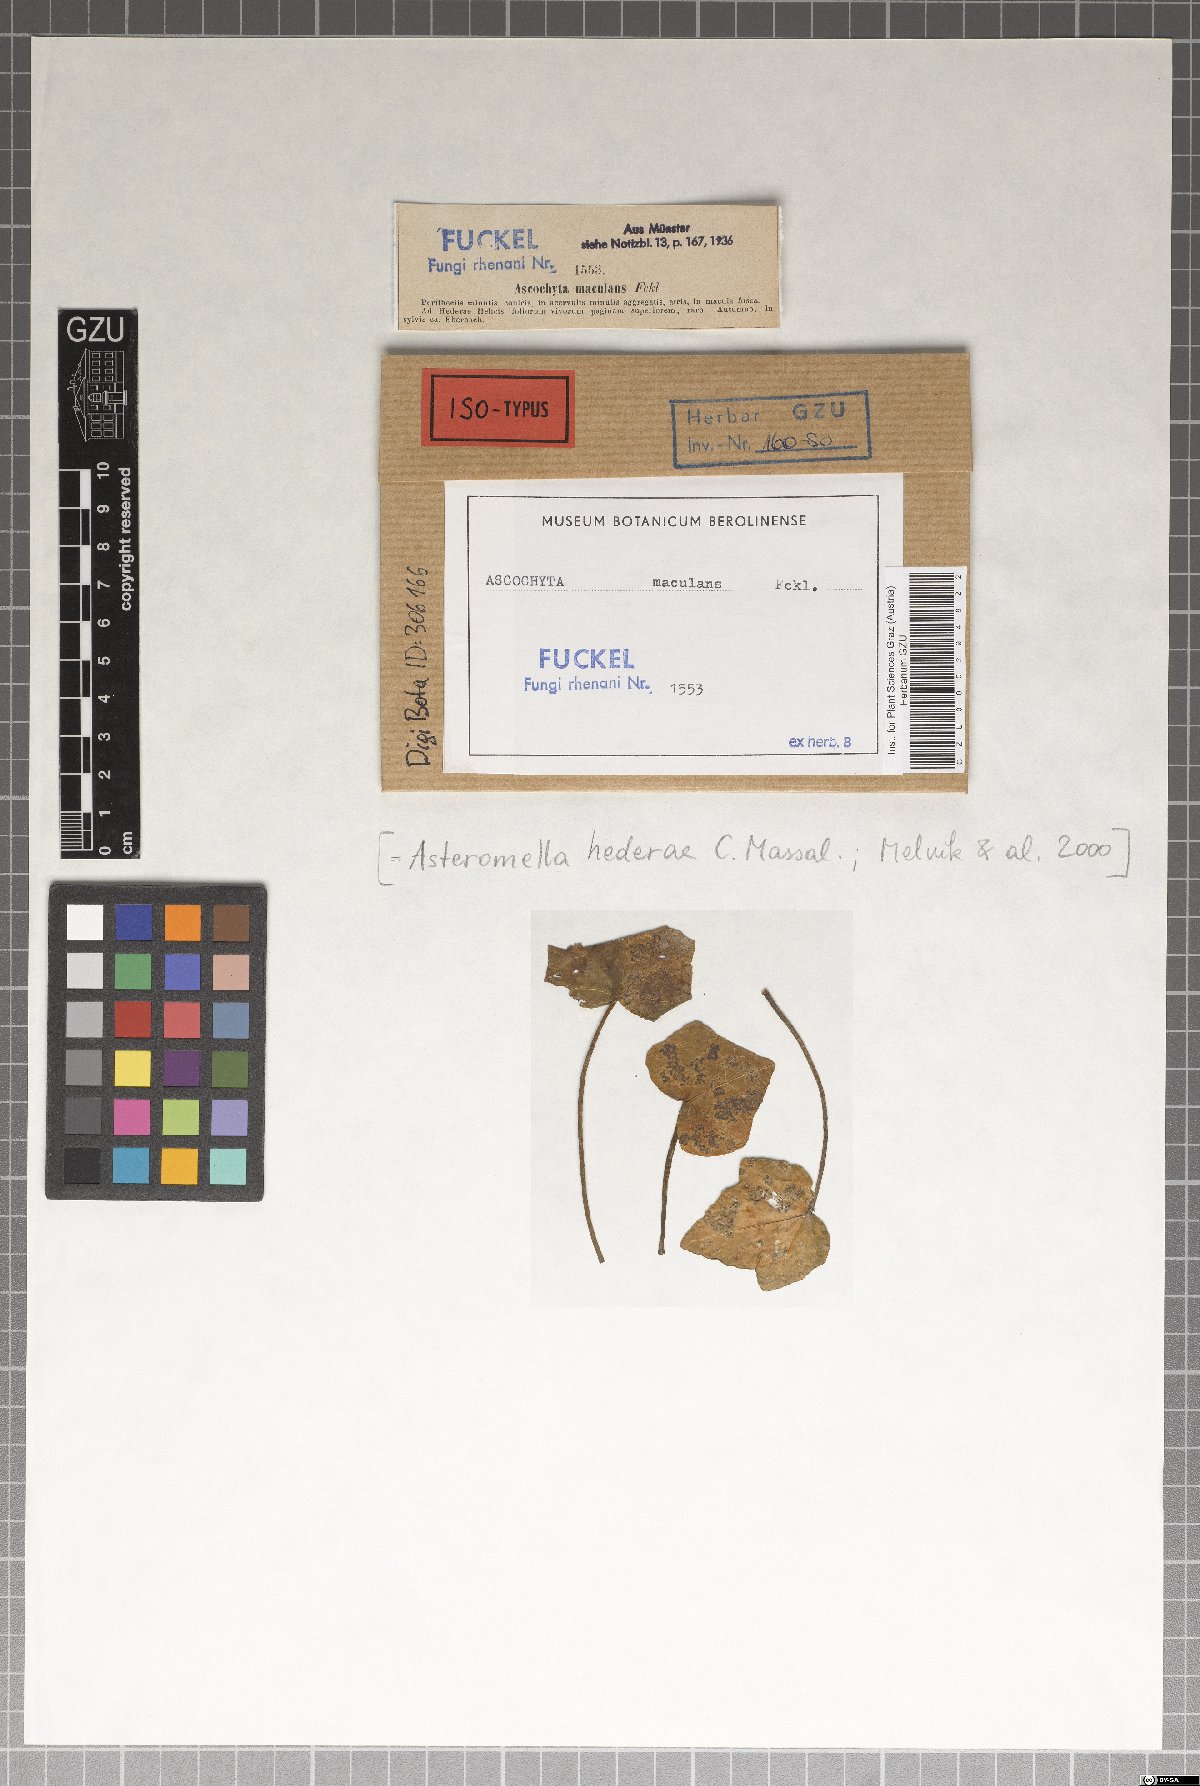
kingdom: Fungi
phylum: Ascomycota
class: Dothideomycetes
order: Pleosporales
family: Didymellaceae
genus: Ascochyta
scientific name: Ascochyta
